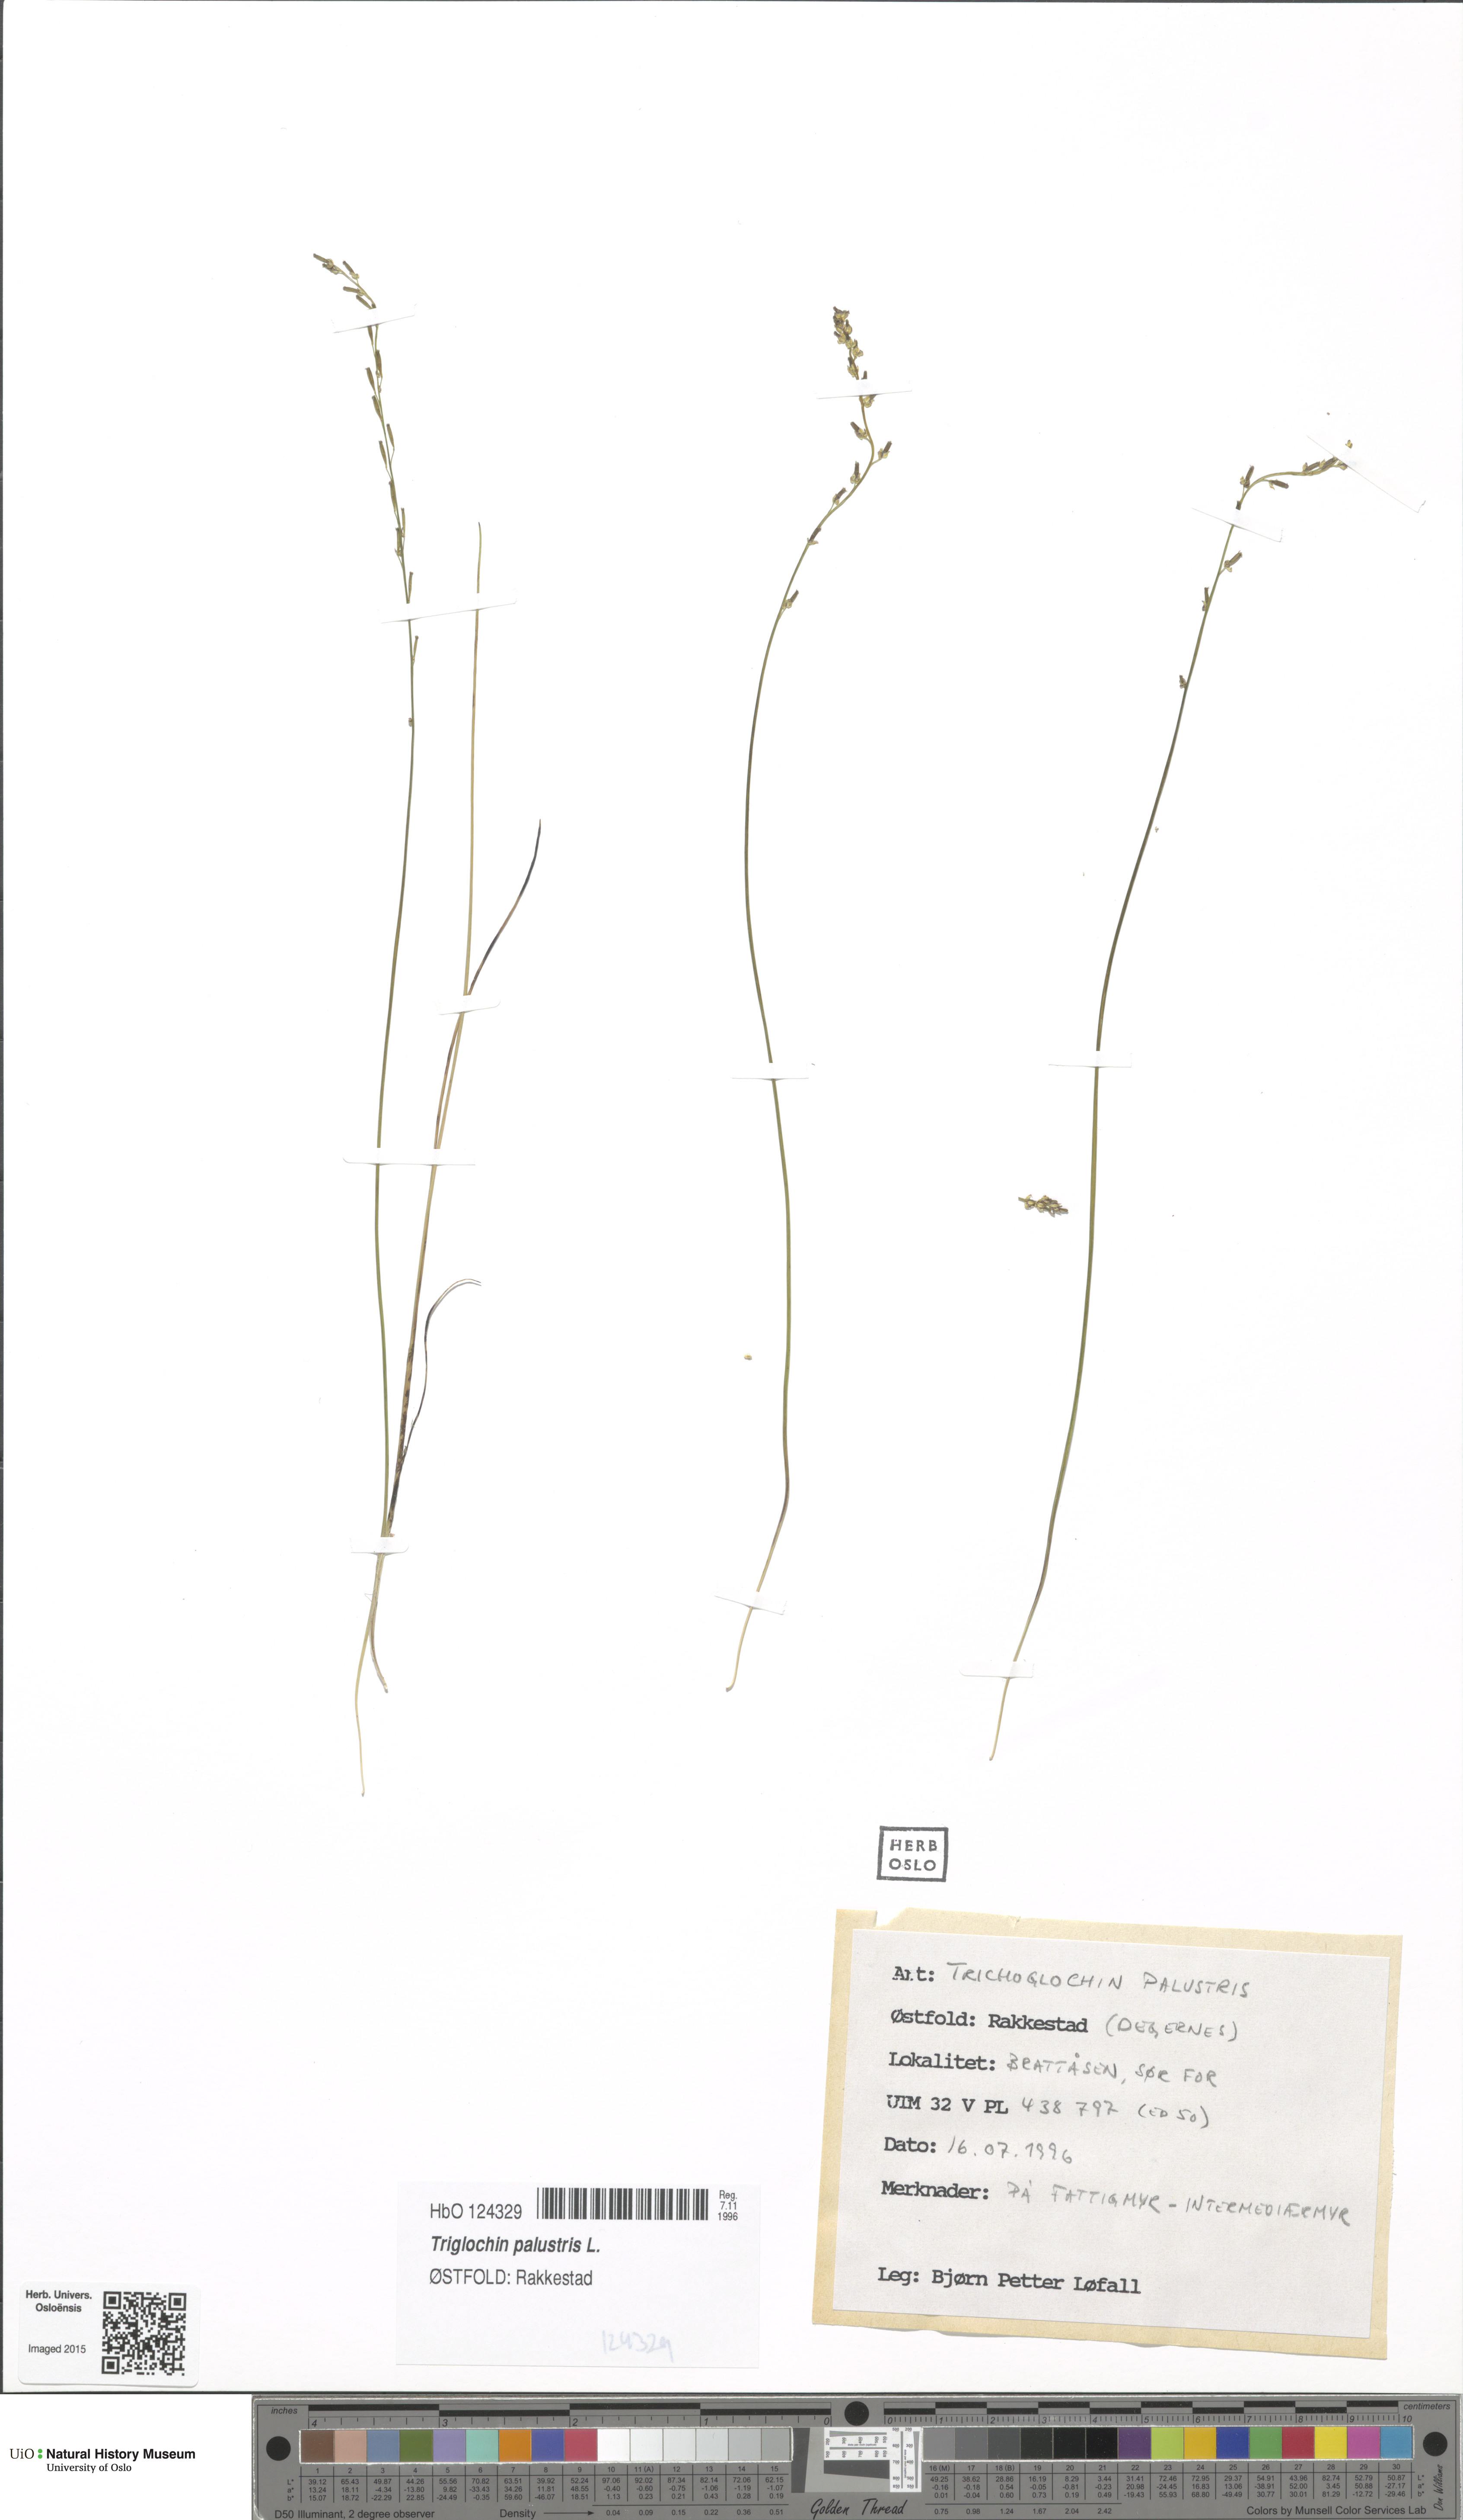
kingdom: Plantae
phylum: Tracheophyta
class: Liliopsida
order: Alismatales
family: Juncaginaceae
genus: Triglochin
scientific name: Triglochin palustris
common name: Marsh arrowgrass
